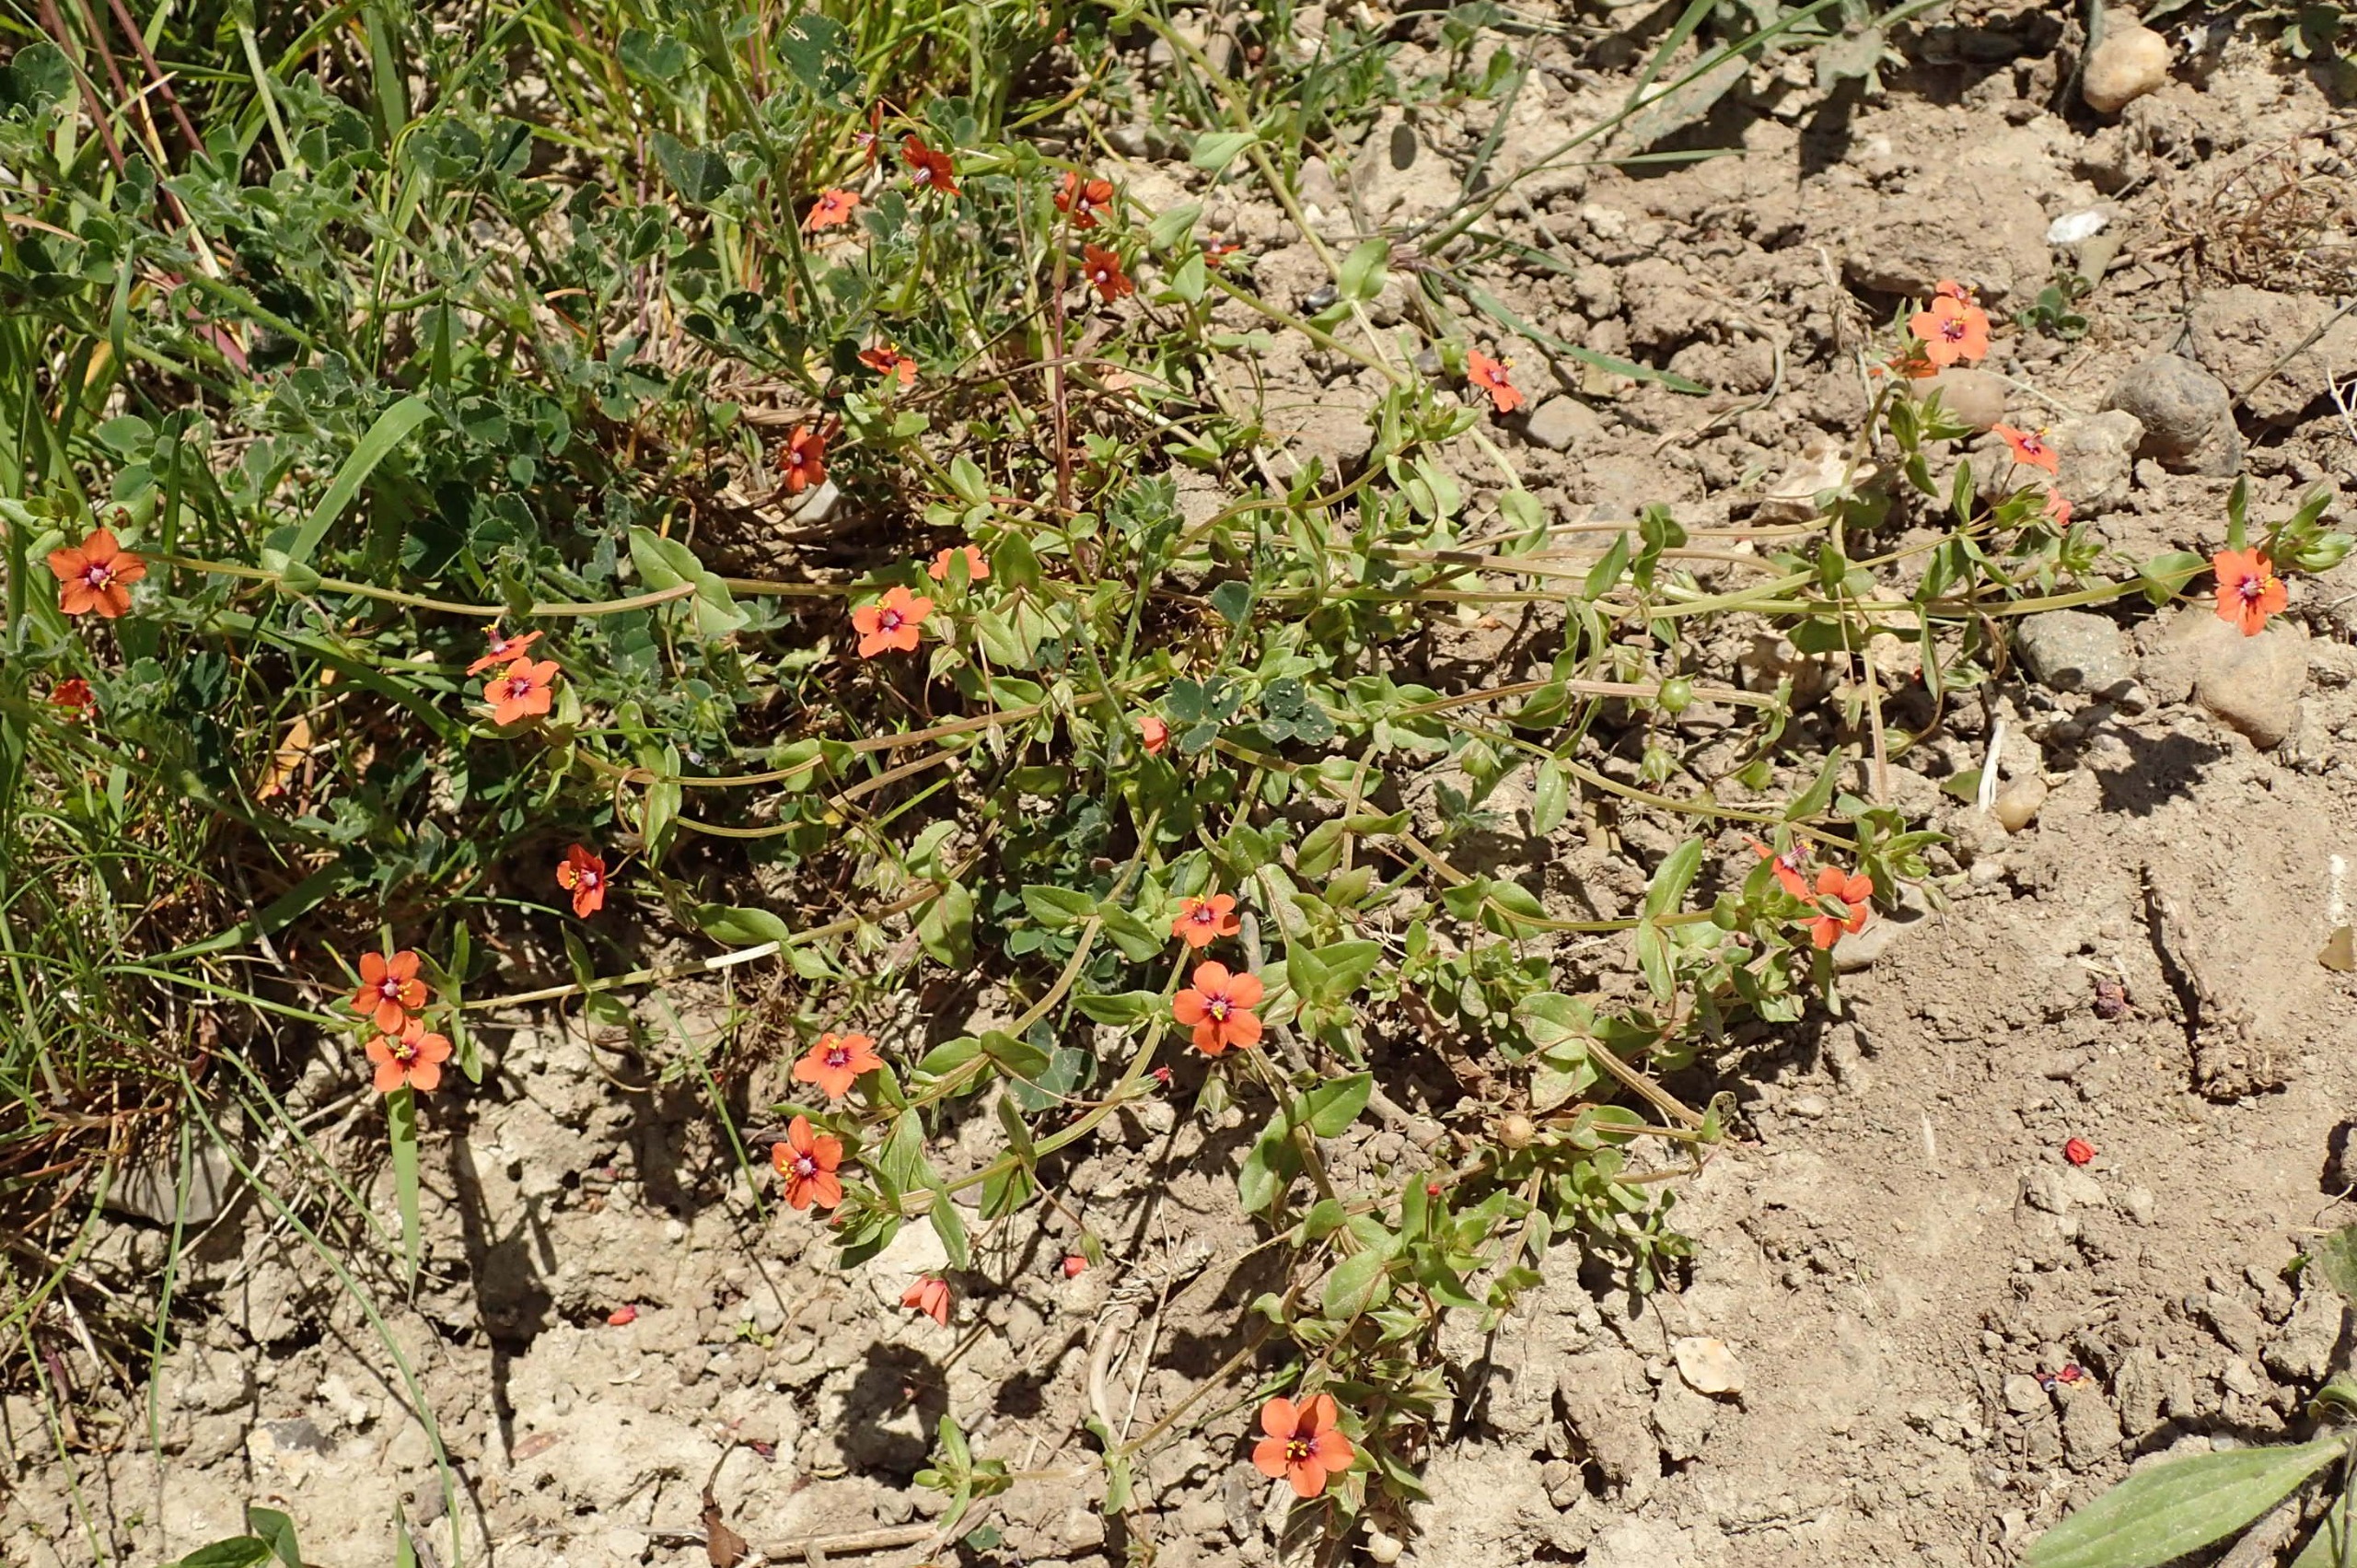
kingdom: Plantae
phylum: Tracheophyta
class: Magnoliopsida
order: Ericales
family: Primulaceae
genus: Lysimachia
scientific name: Lysimachia arvensis
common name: Rød arve
